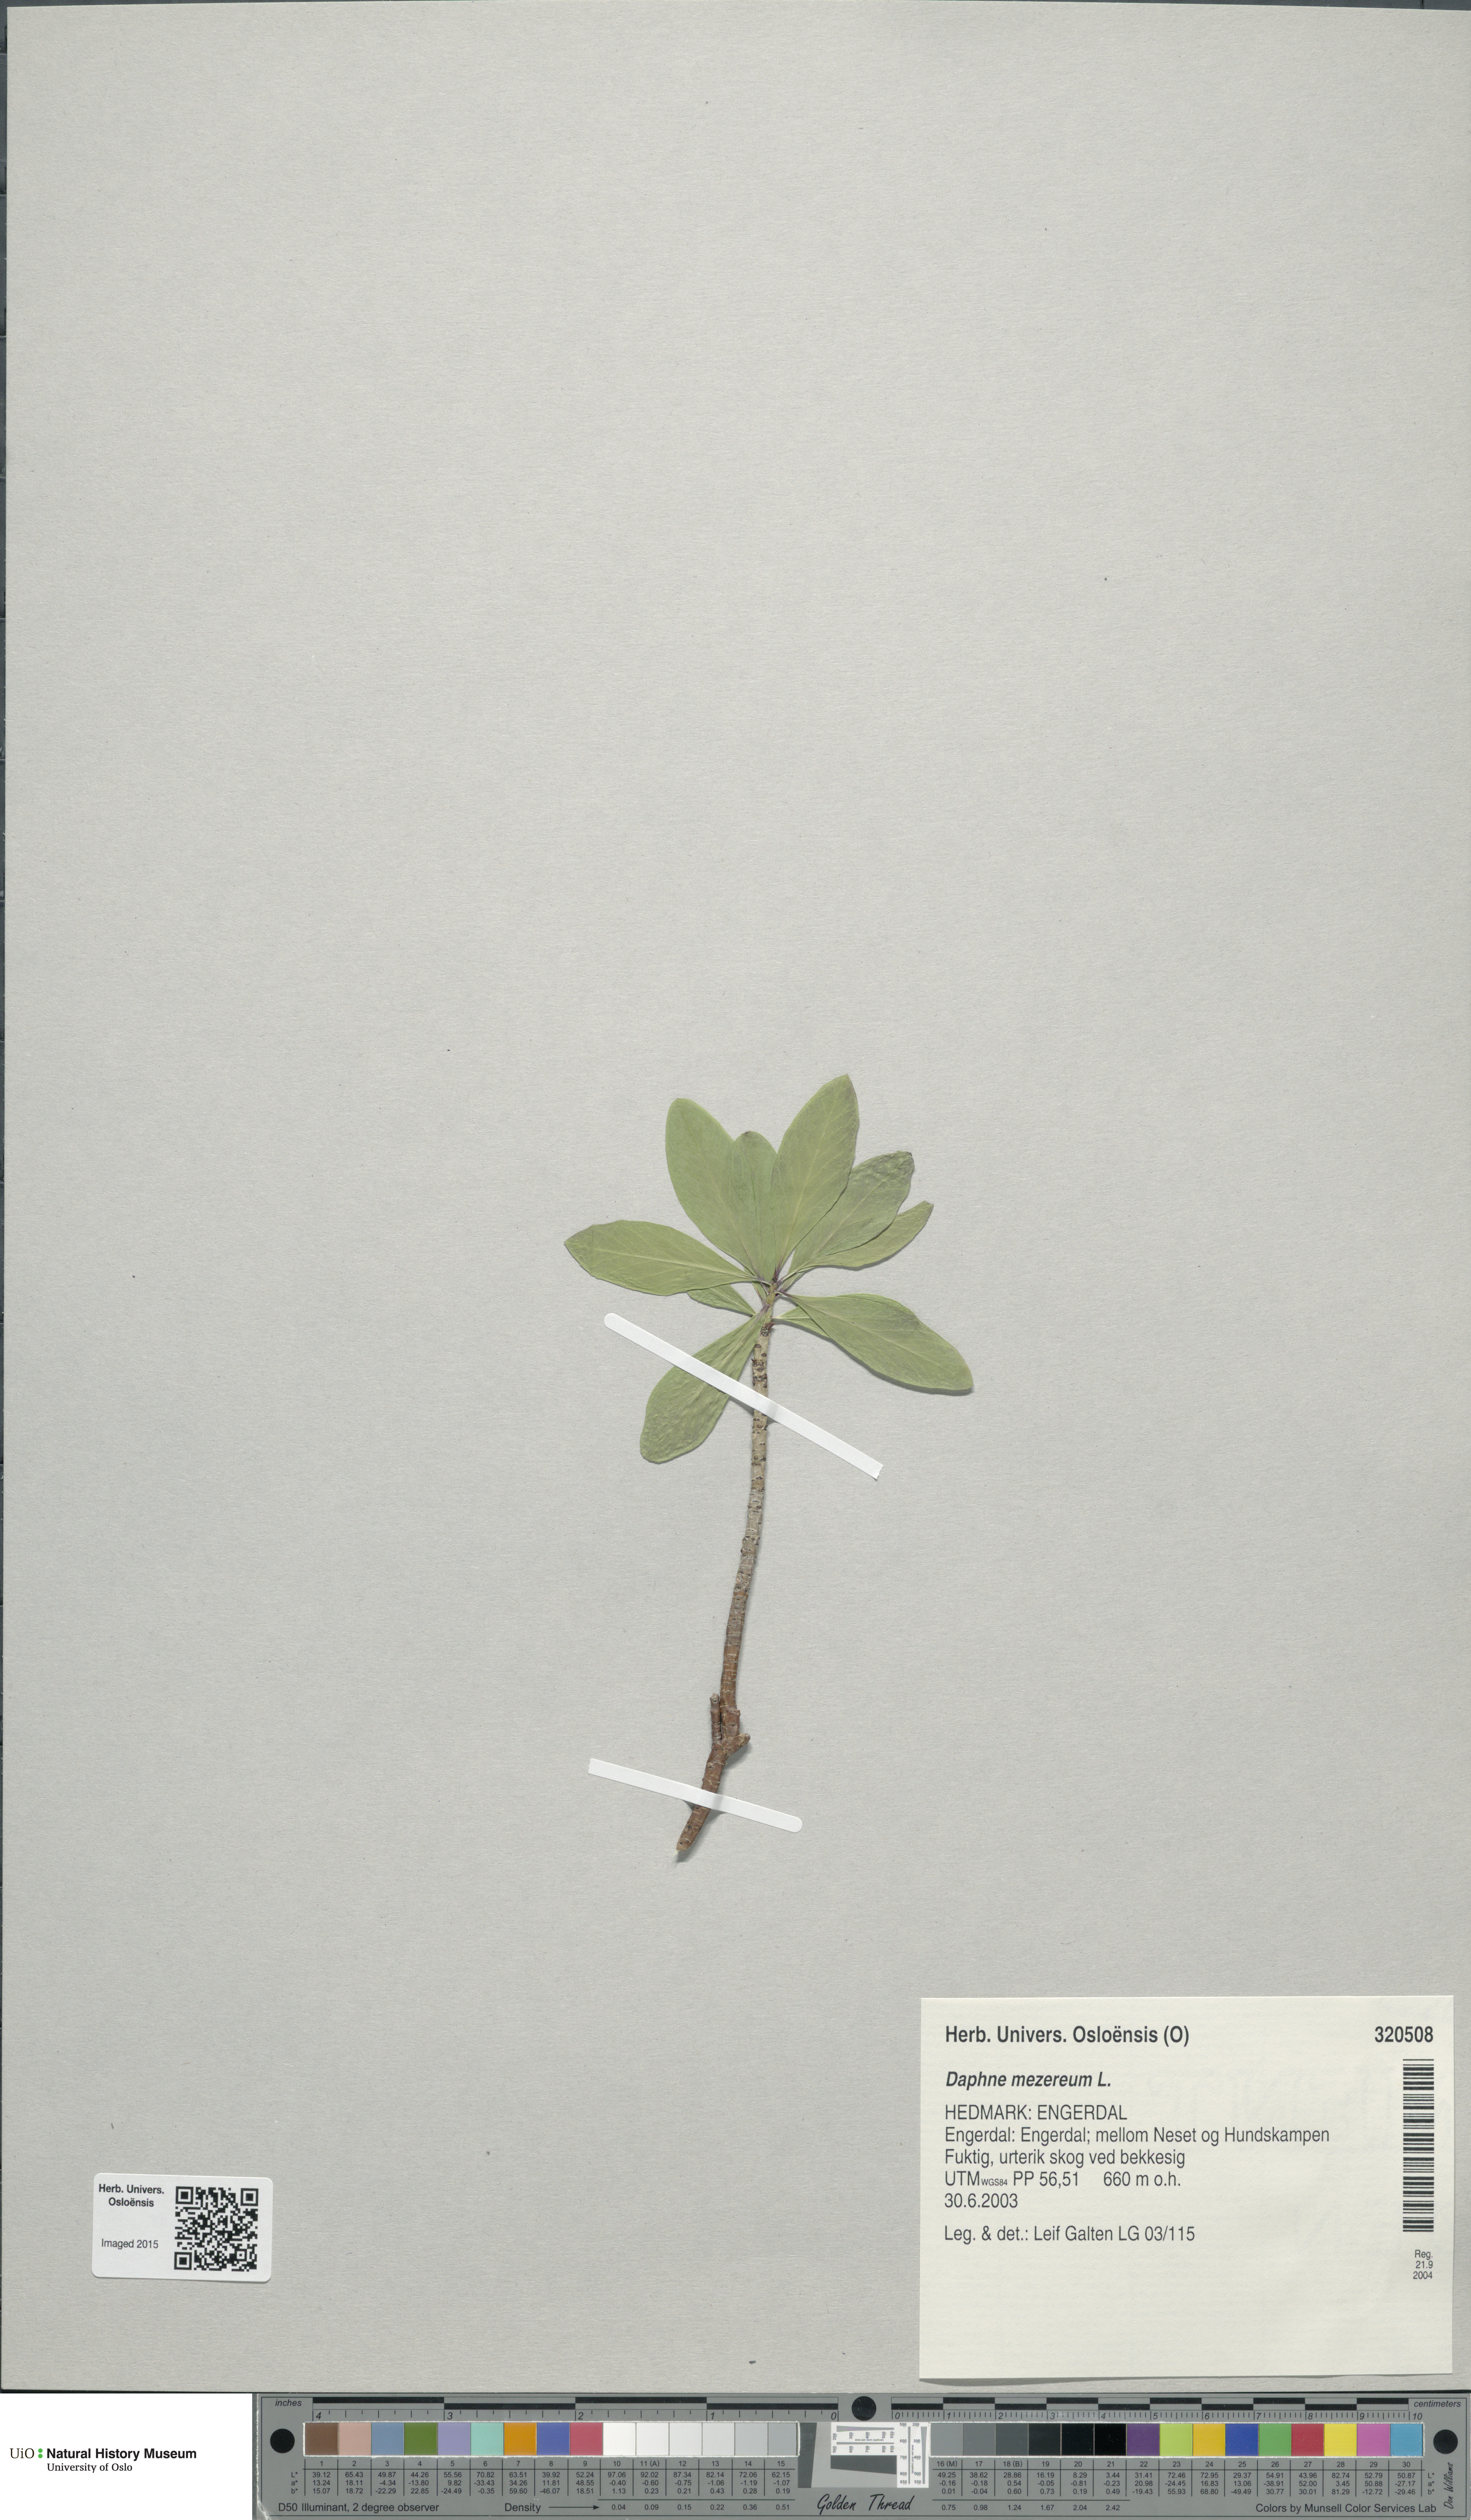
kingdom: Plantae
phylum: Tracheophyta
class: Magnoliopsida
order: Malvales
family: Thymelaeaceae
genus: Daphne
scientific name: Daphne mezereum
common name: Mezereon
